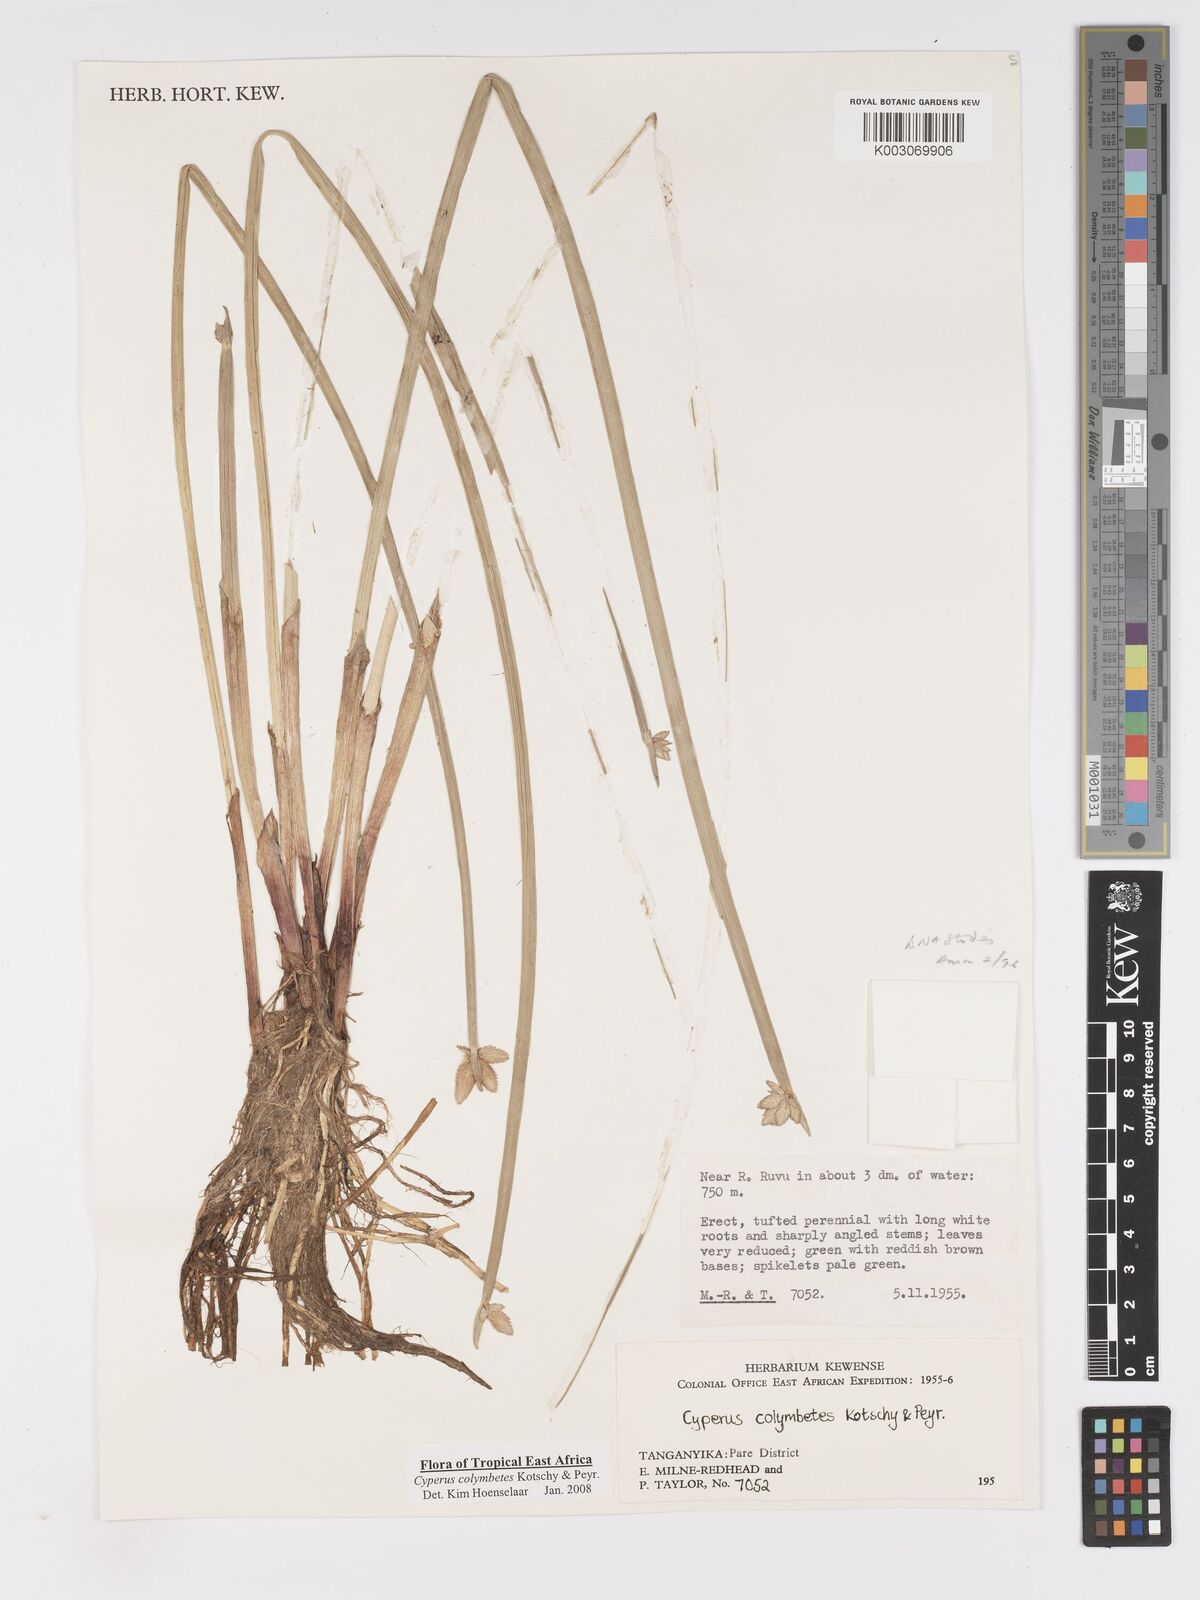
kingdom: Plantae
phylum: Tracheophyta
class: Liliopsida
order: Poales
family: Cyperaceae
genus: Cyperus
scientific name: Cyperus colymbetes
